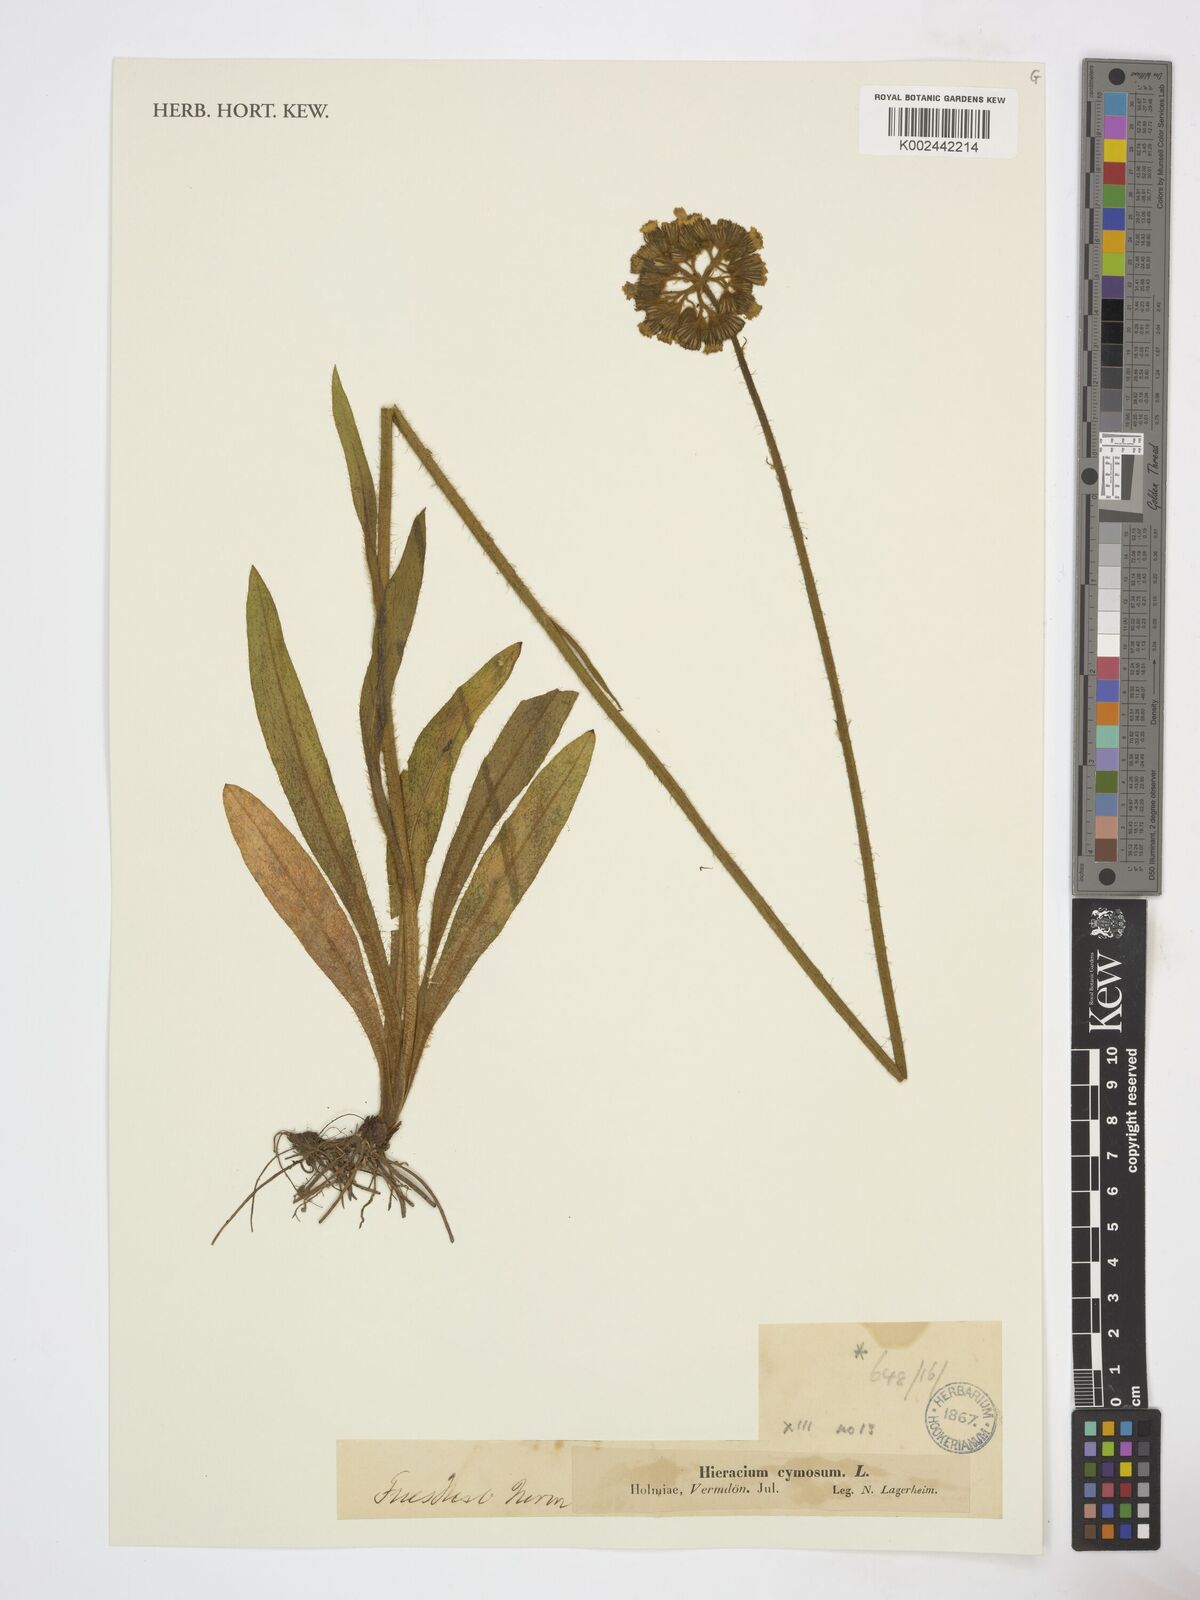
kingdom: Plantae
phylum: Tracheophyta
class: Magnoliopsida
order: Asterales
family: Asteraceae
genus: Pilosella
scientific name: Pilosella cymosa
